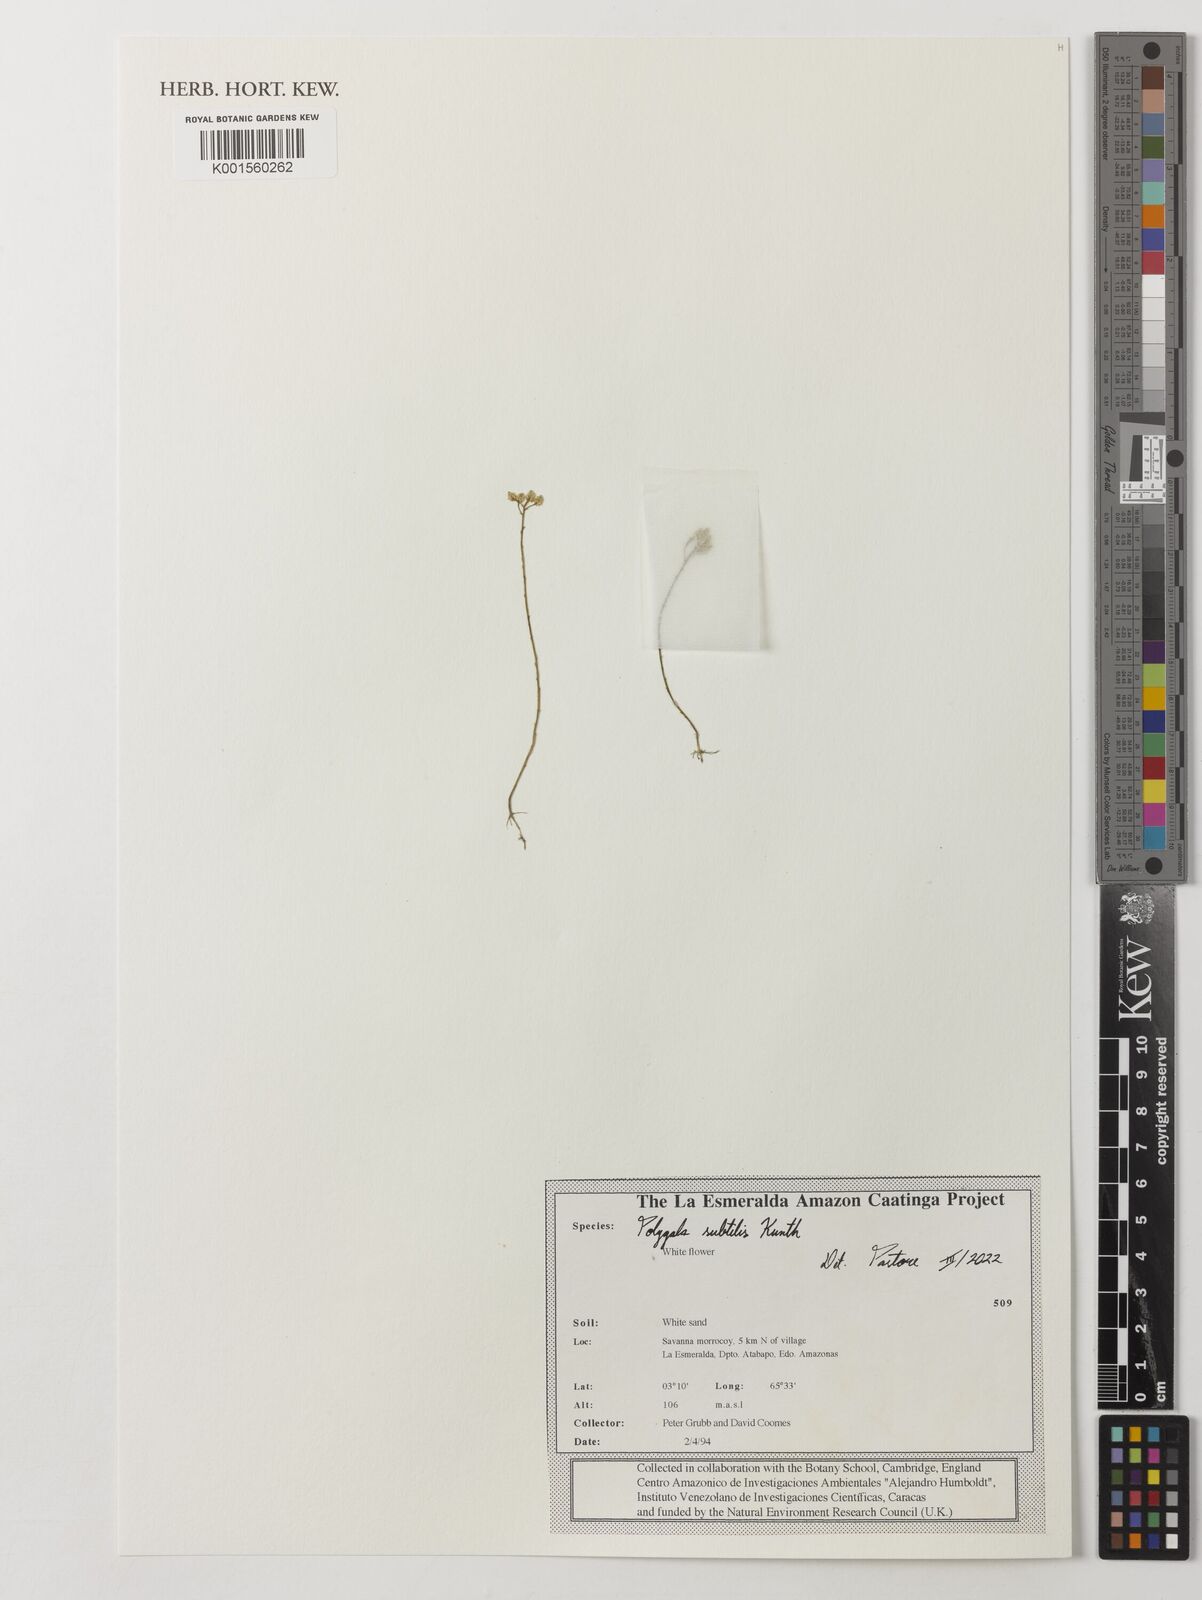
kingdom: Plantae
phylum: Tracheophyta
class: Magnoliopsida
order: Fabales
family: Polygalaceae
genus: Polygala
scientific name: Polygala subtilis
